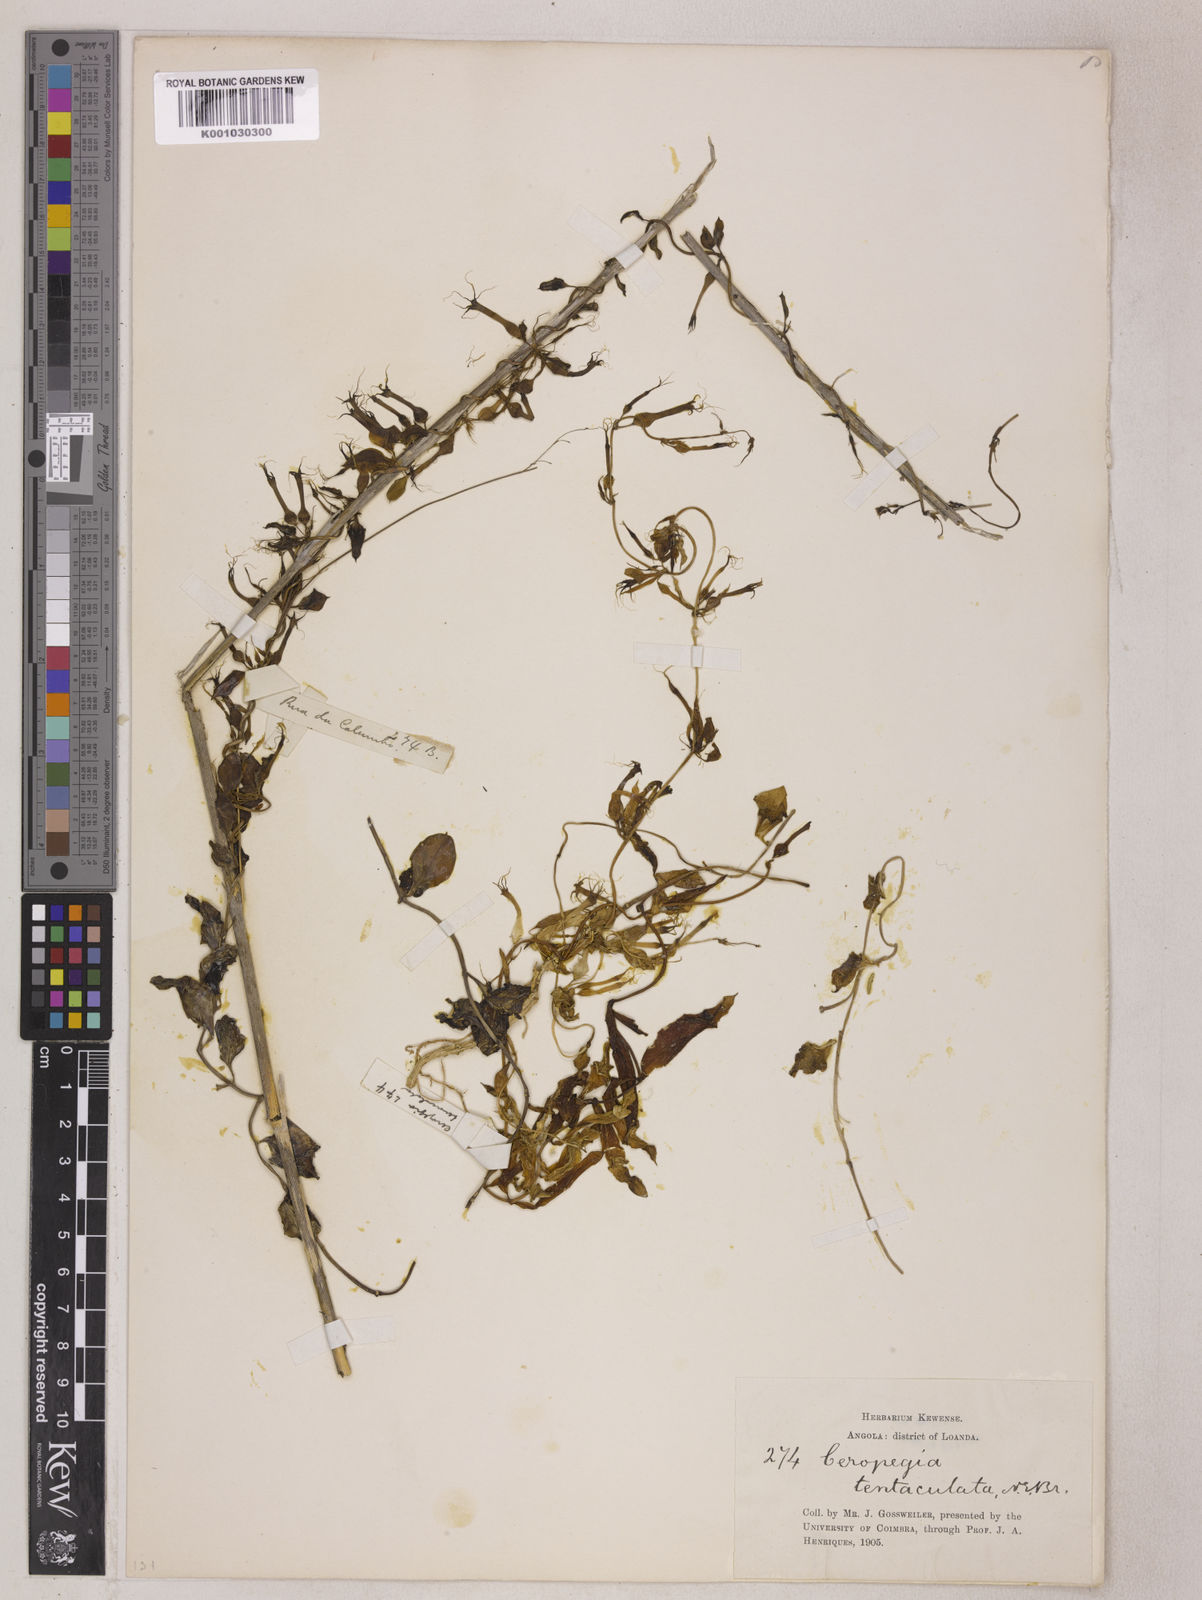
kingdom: Plantae
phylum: Tracheophyta
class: Magnoliopsida
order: Gentianales
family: Apocynaceae
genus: Ceropegia
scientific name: Ceropegia multiflora
